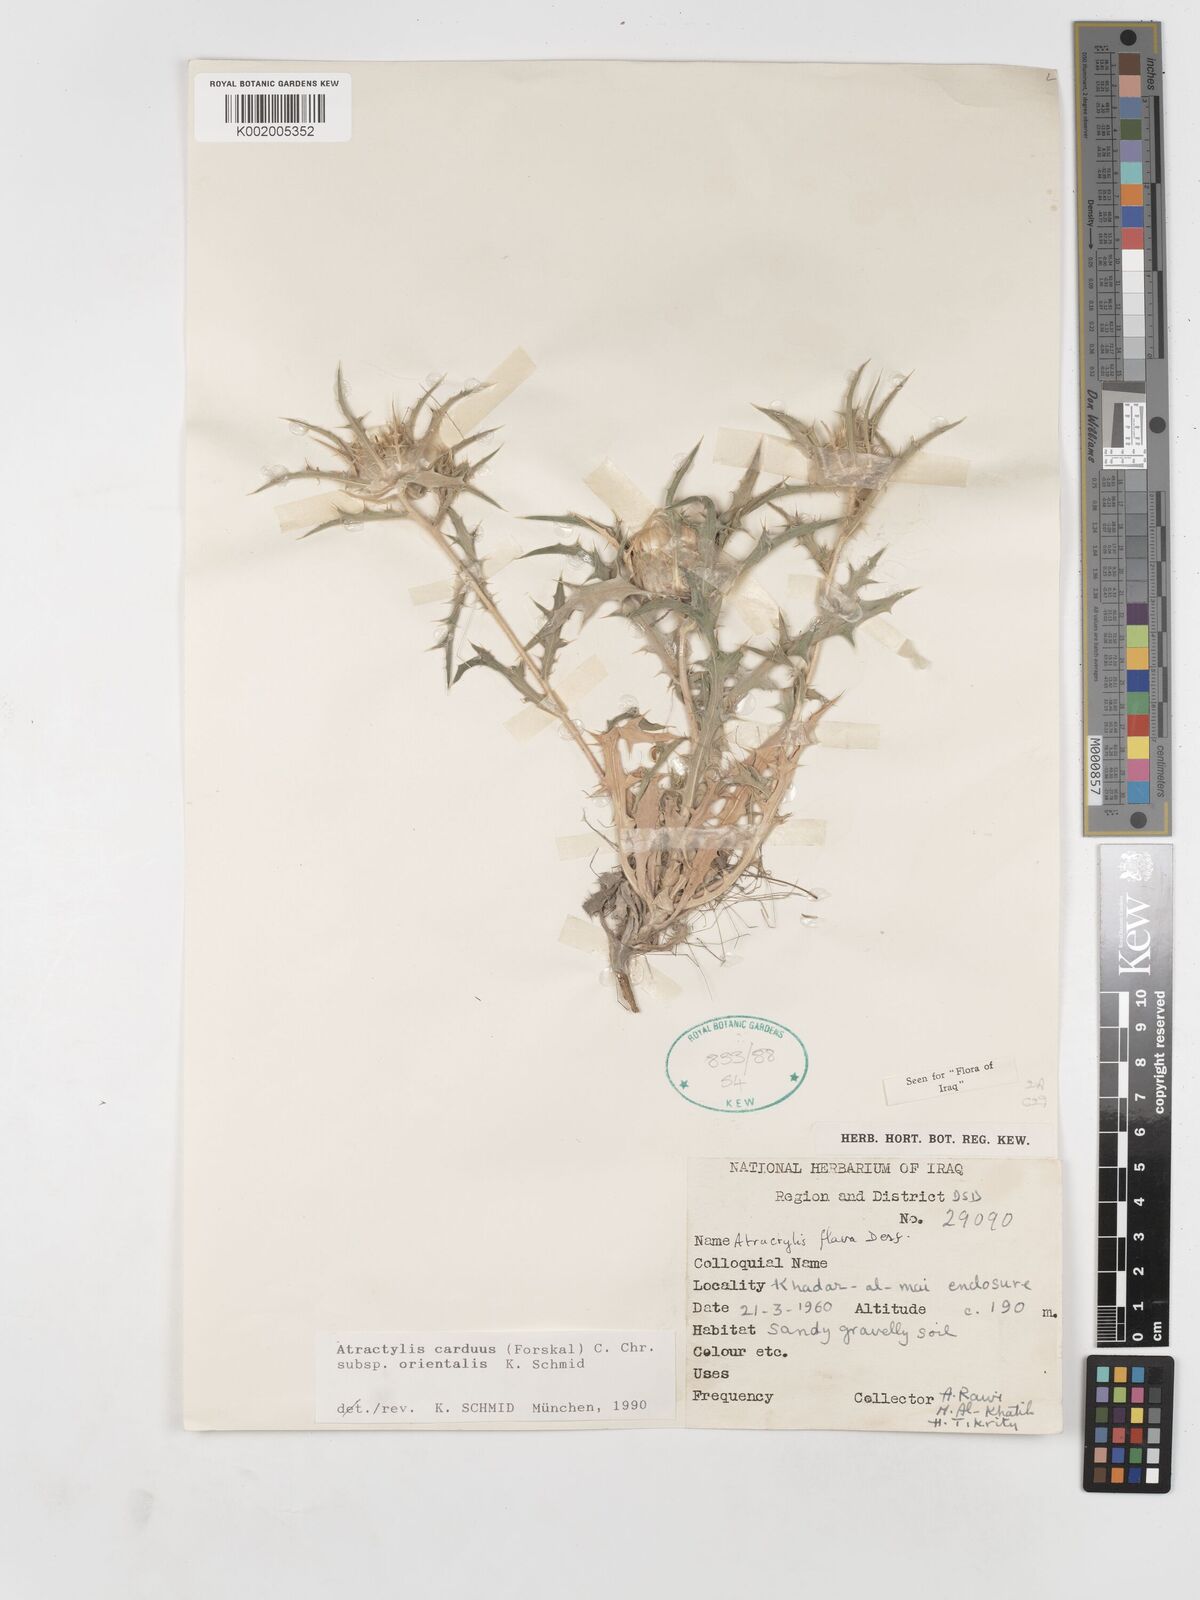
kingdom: Plantae
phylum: Tracheophyta
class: Magnoliopsida
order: Asterales
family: Asteraceae
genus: Atractylis
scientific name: Atractylis carduus
